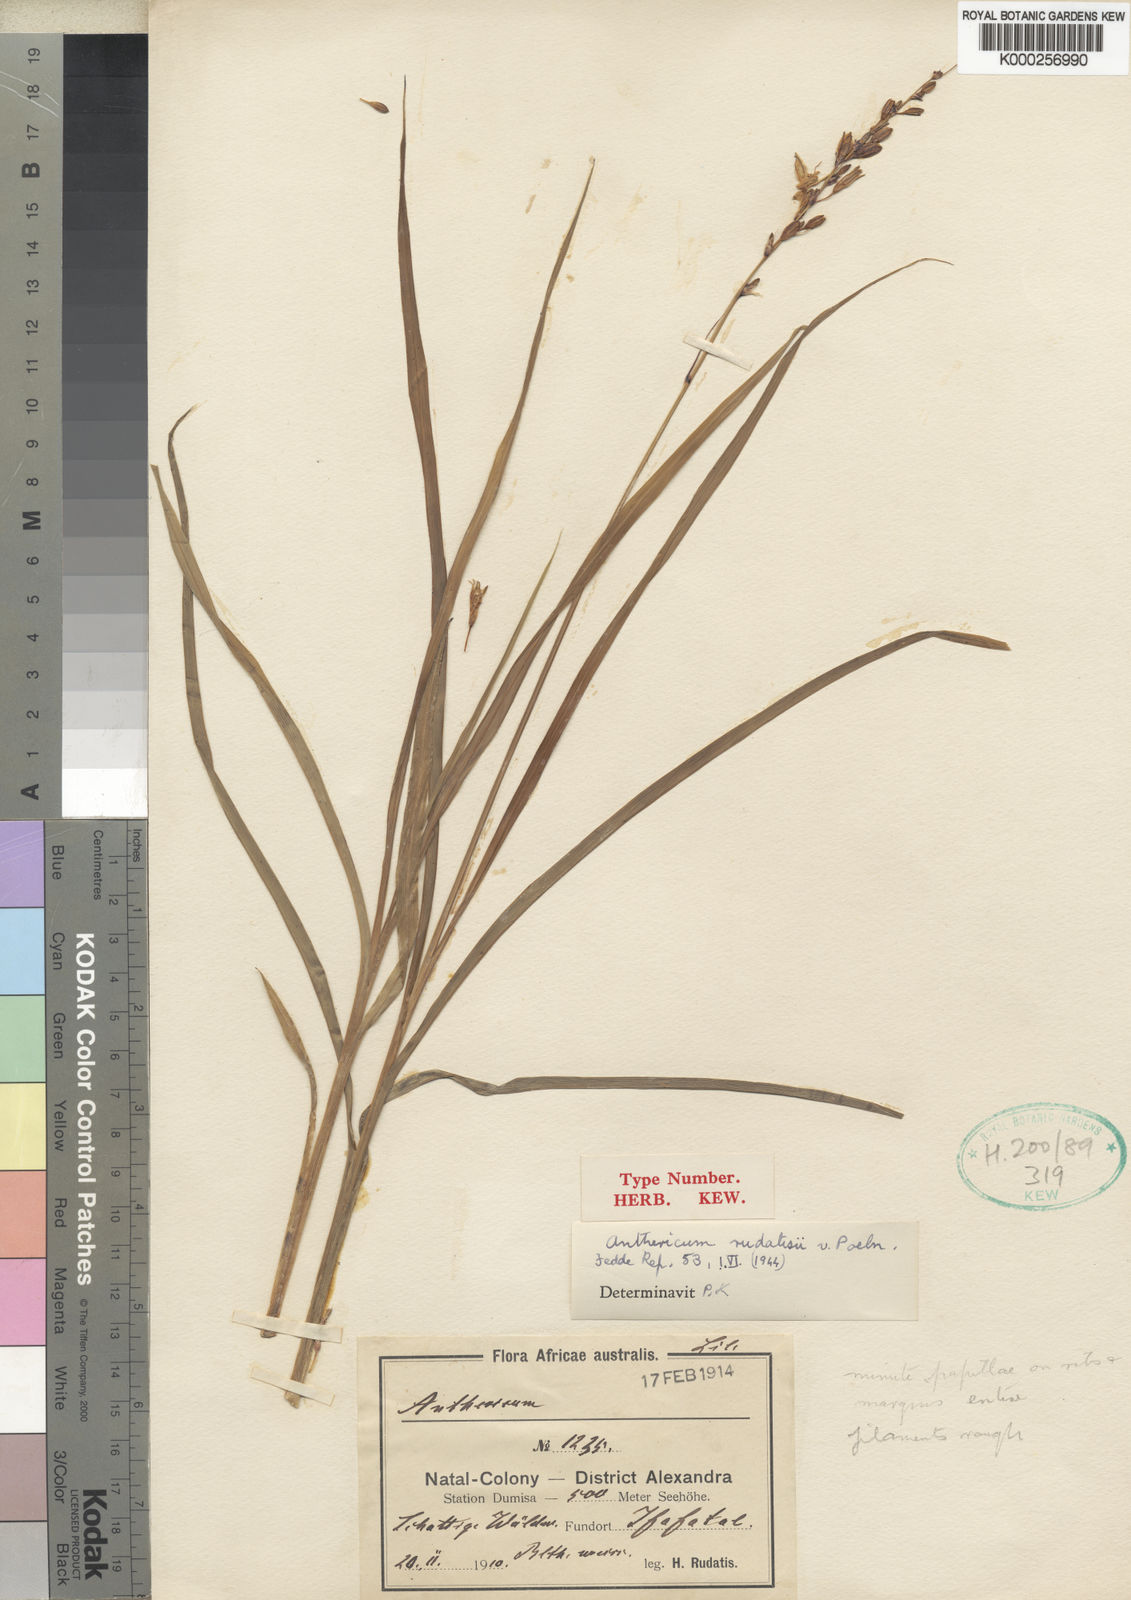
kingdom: Plantae
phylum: Tracheophyta
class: Liliopsida
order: Asparagales
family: Asparagaceae
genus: Chlorophytum
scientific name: Chlorophytum saundersiae
